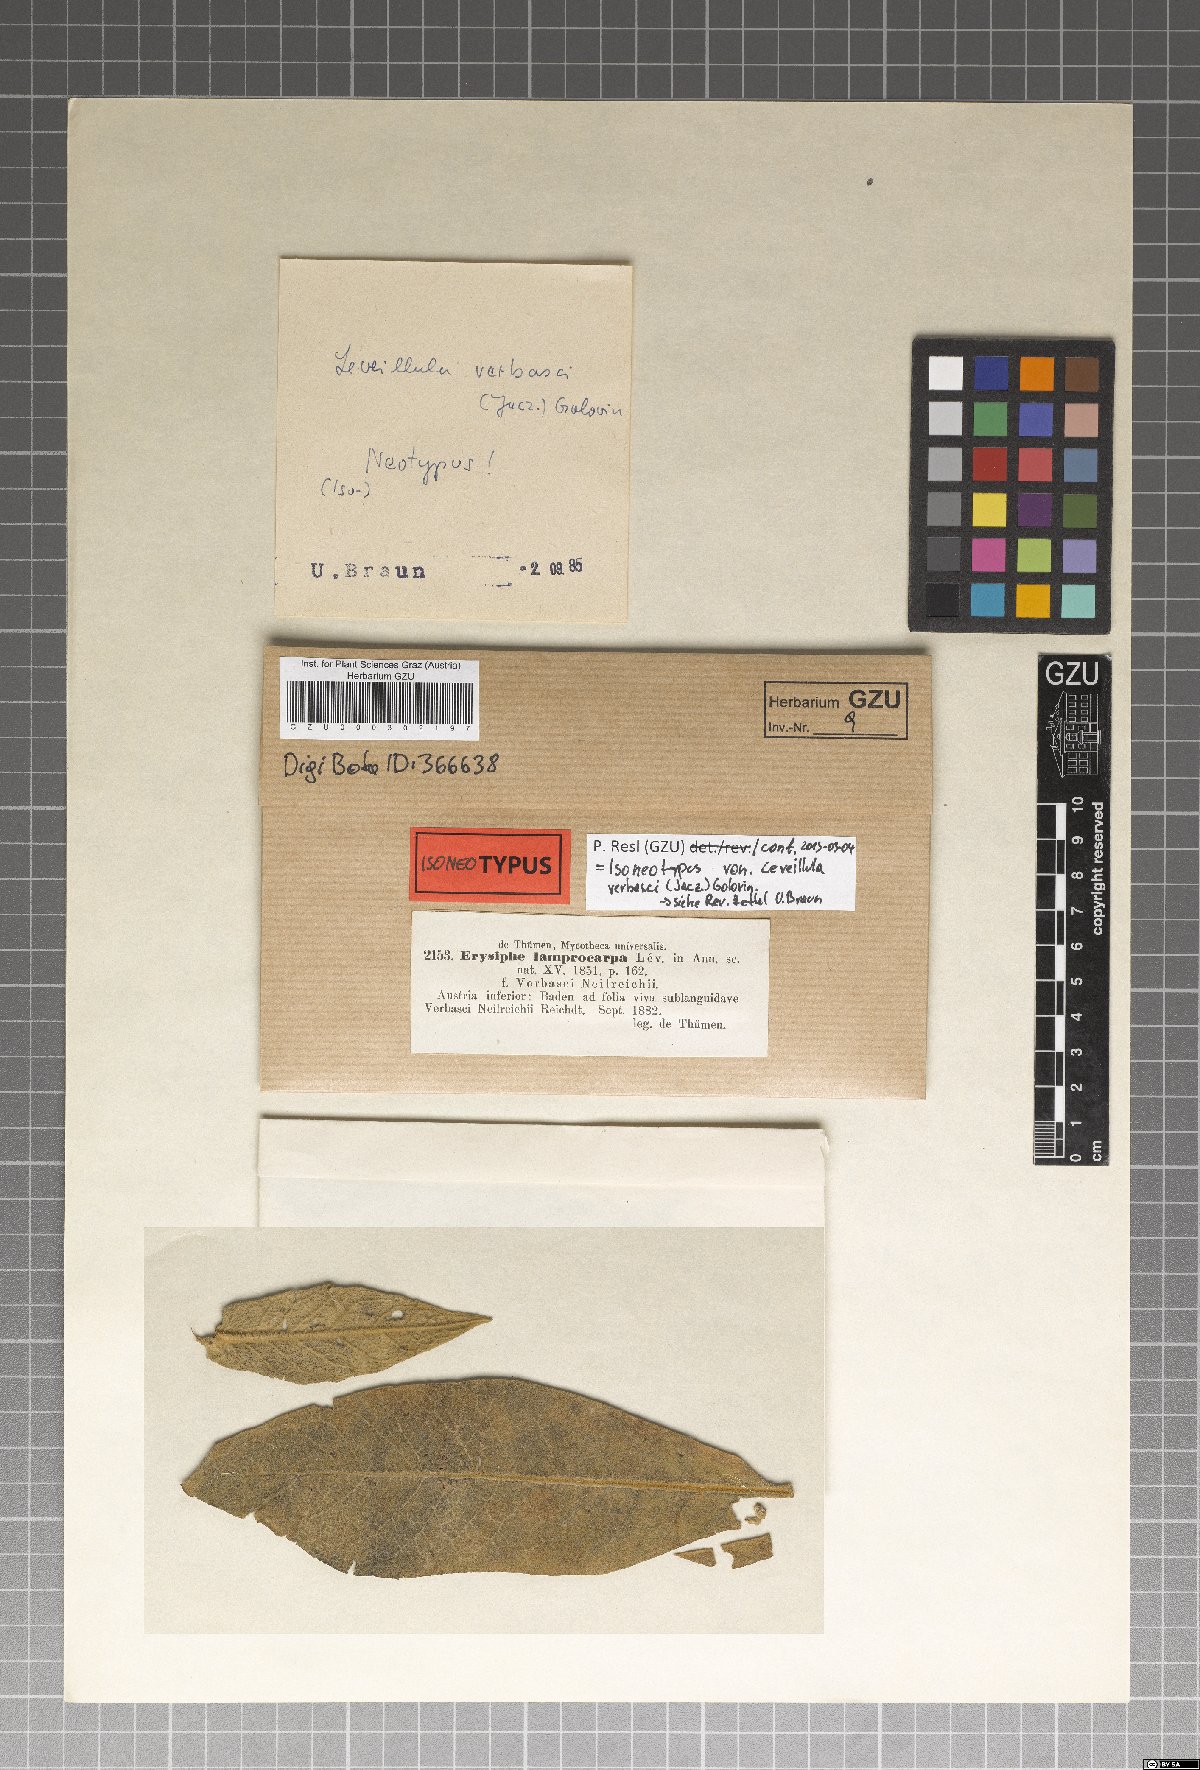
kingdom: Fungi
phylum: Ascomycota
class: Leotiomycetes
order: Helotiales
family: Erysiphaceae
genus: Leveillula
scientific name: Leveillula verbasci
